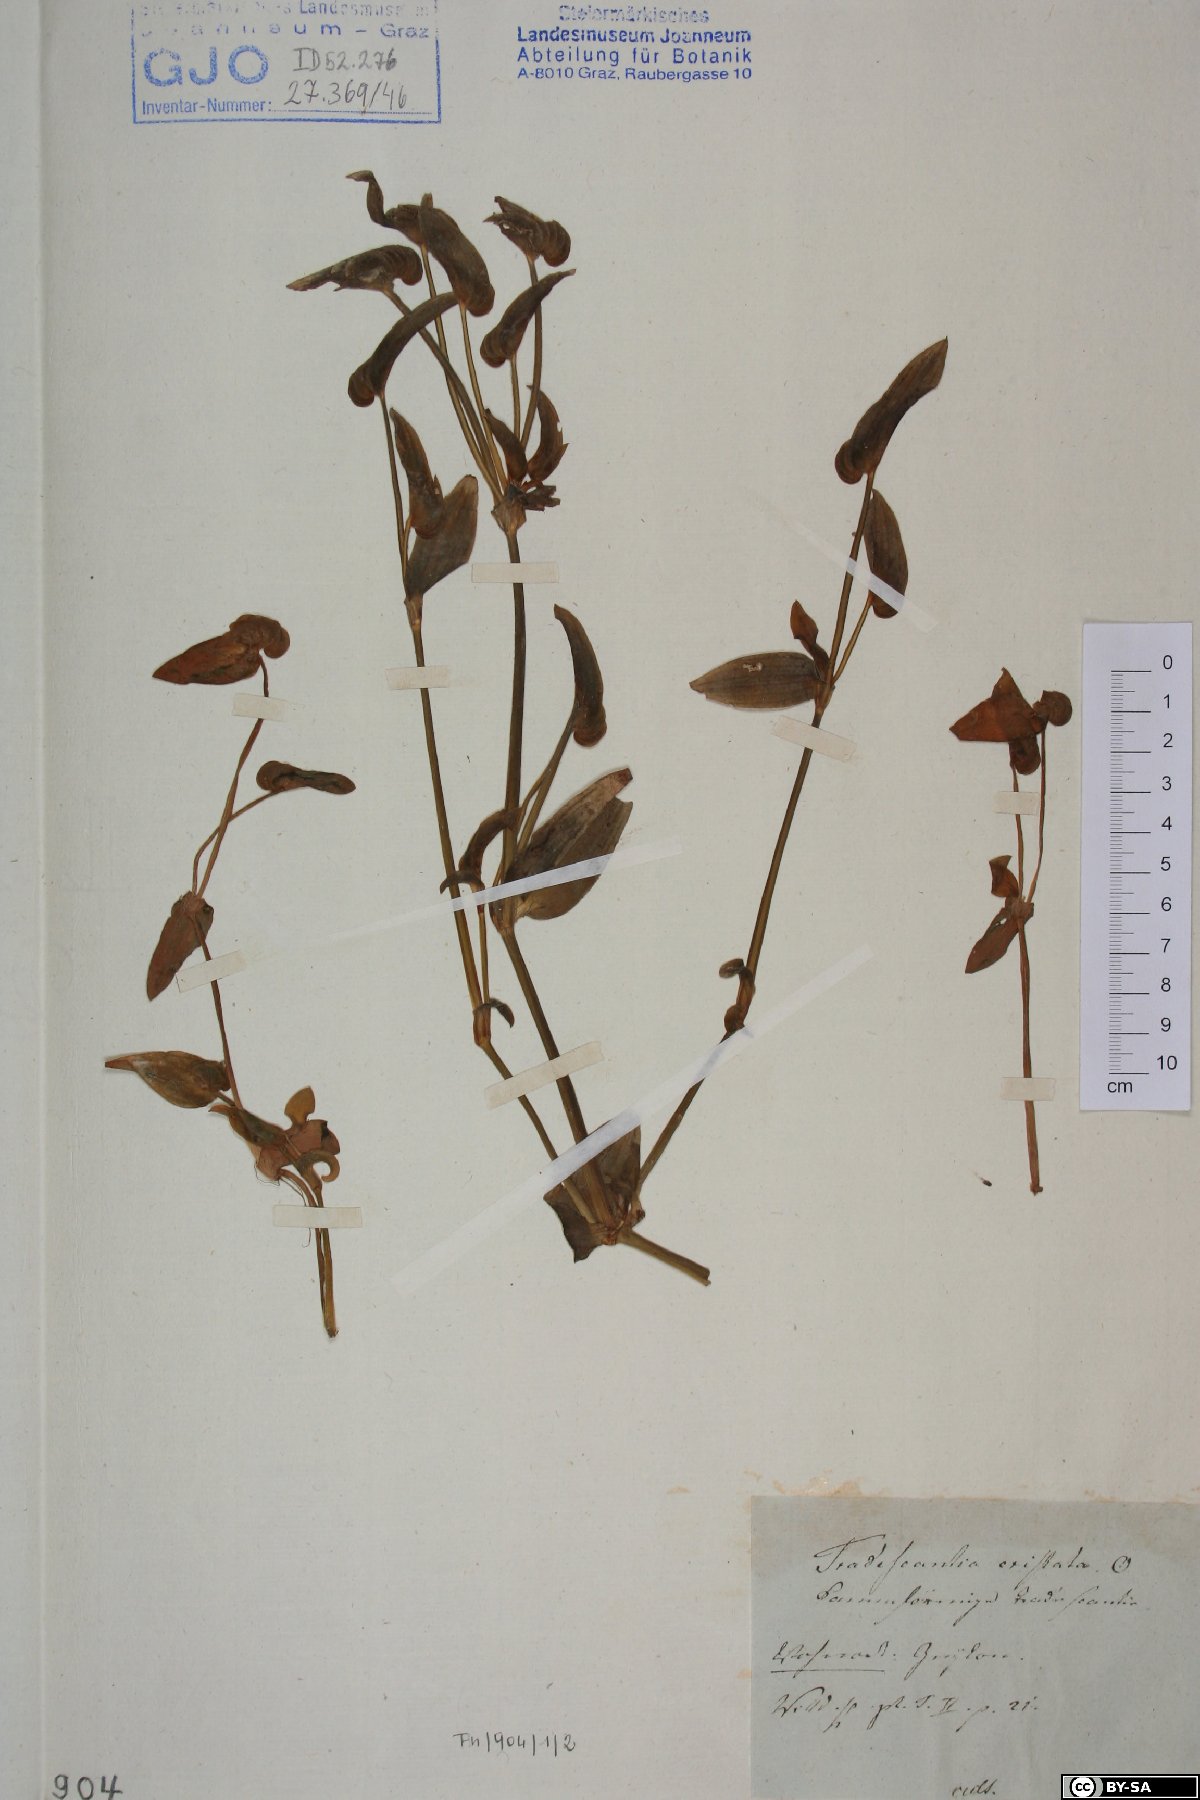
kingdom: Plantae
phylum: Tracheophyta
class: Liliopsida
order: Commelinales
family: Commelinaceae
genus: Cyanotis
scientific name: Cyanotis cristata
